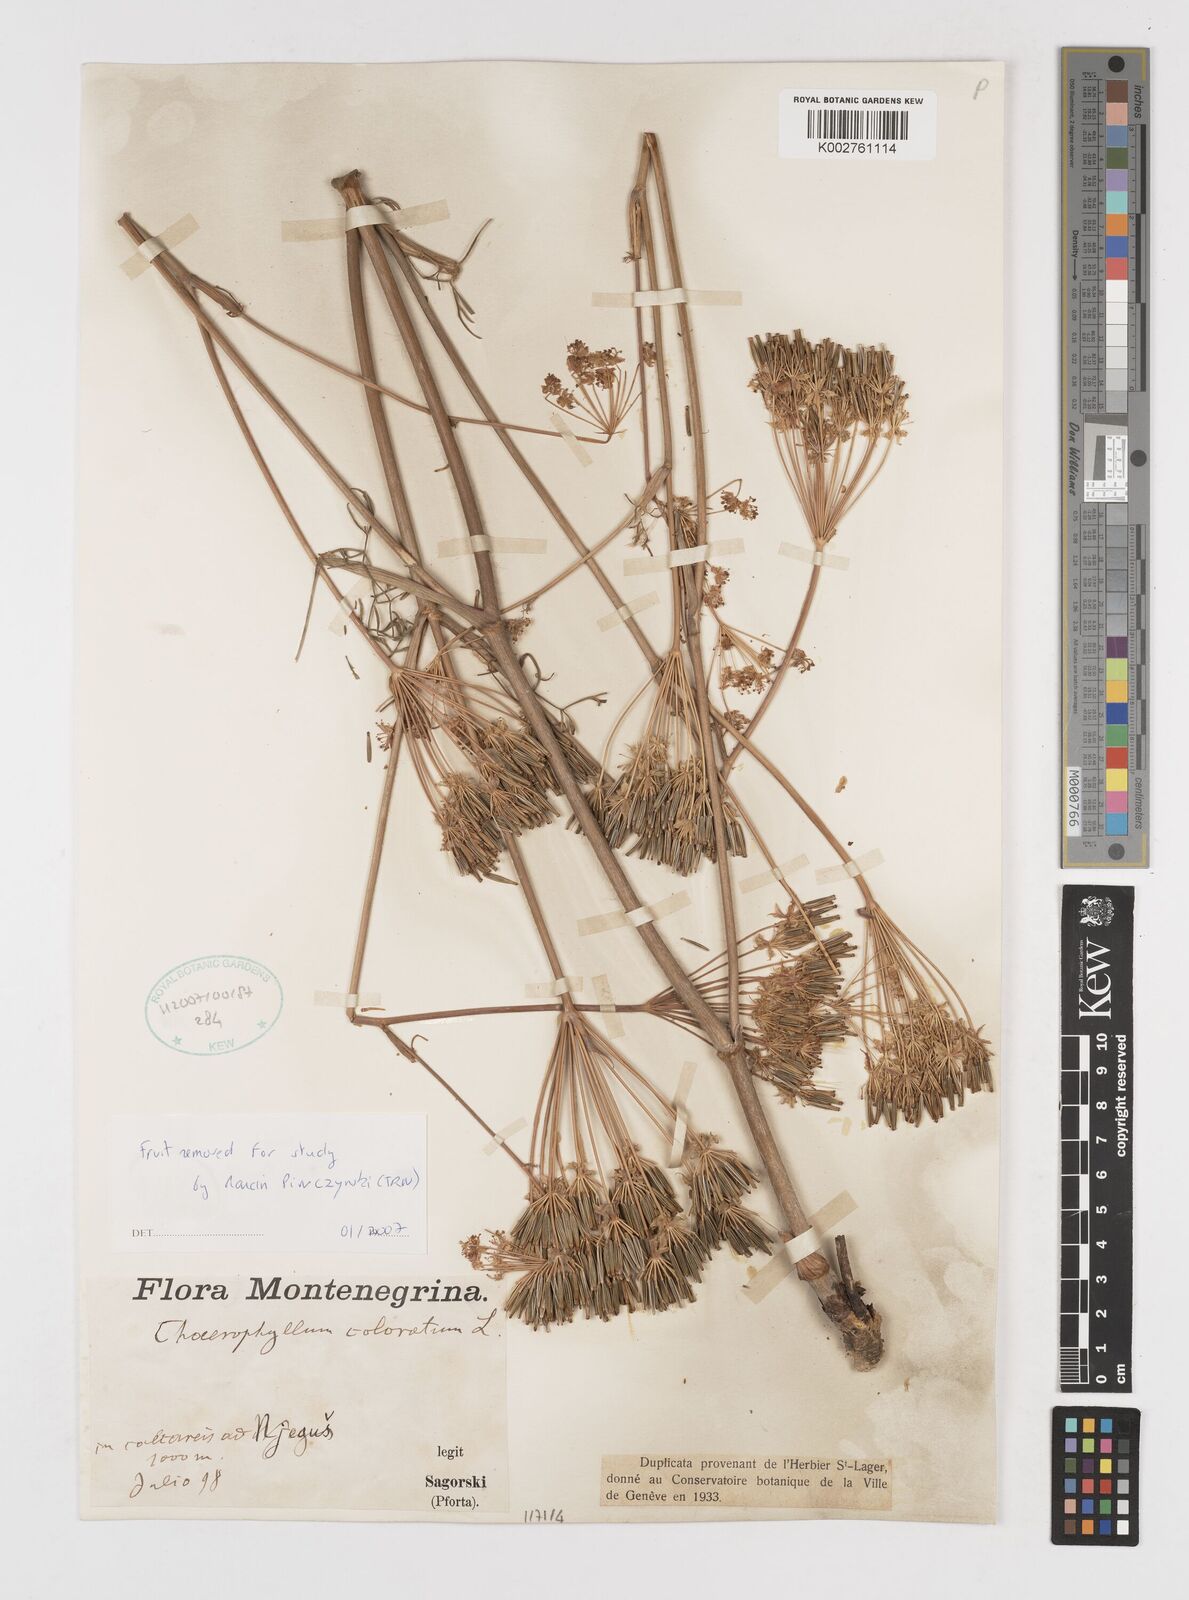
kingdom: Plantae
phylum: Tracheophyta
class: Magnoliopsida
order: Apiales
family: Apiaceae
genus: Chaerophyllum
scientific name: Chaerophyllum coloratum
